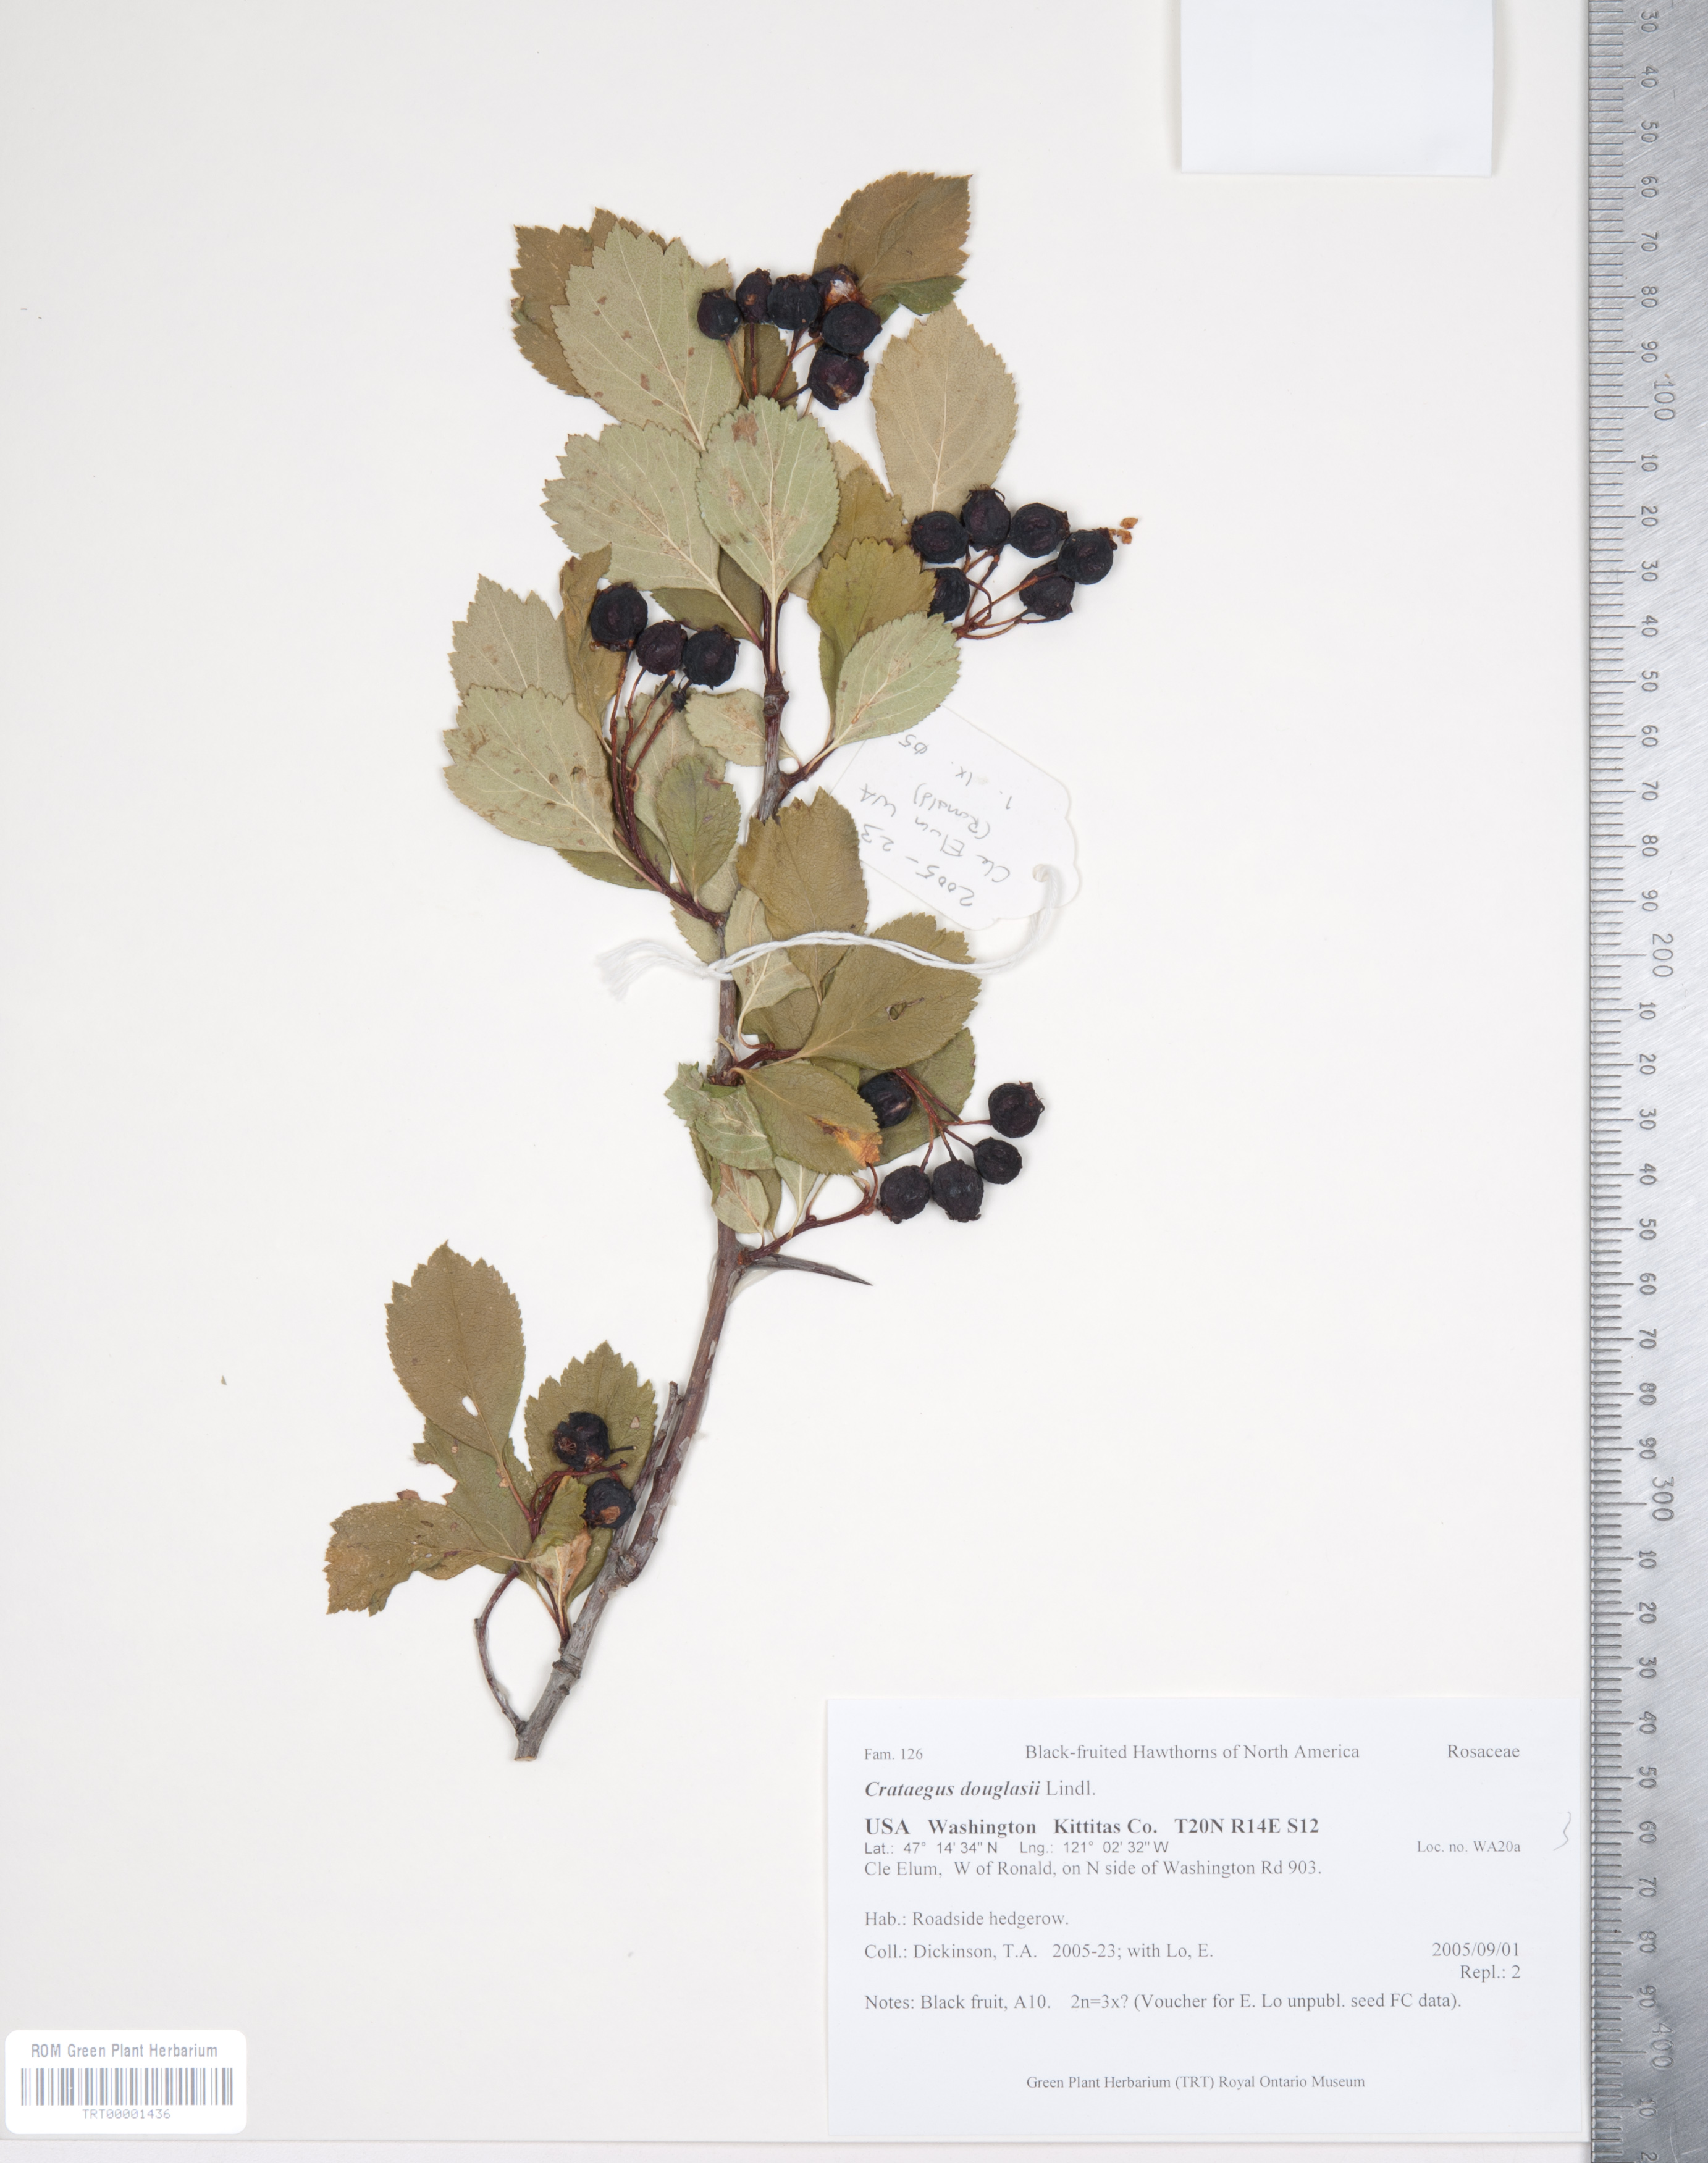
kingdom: Plantae
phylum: Tracheophyta
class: Magnoliopsida
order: Rosales
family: Rosaceae
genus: Crataegus
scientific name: Crataegus douglasii
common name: Black hawthorn
